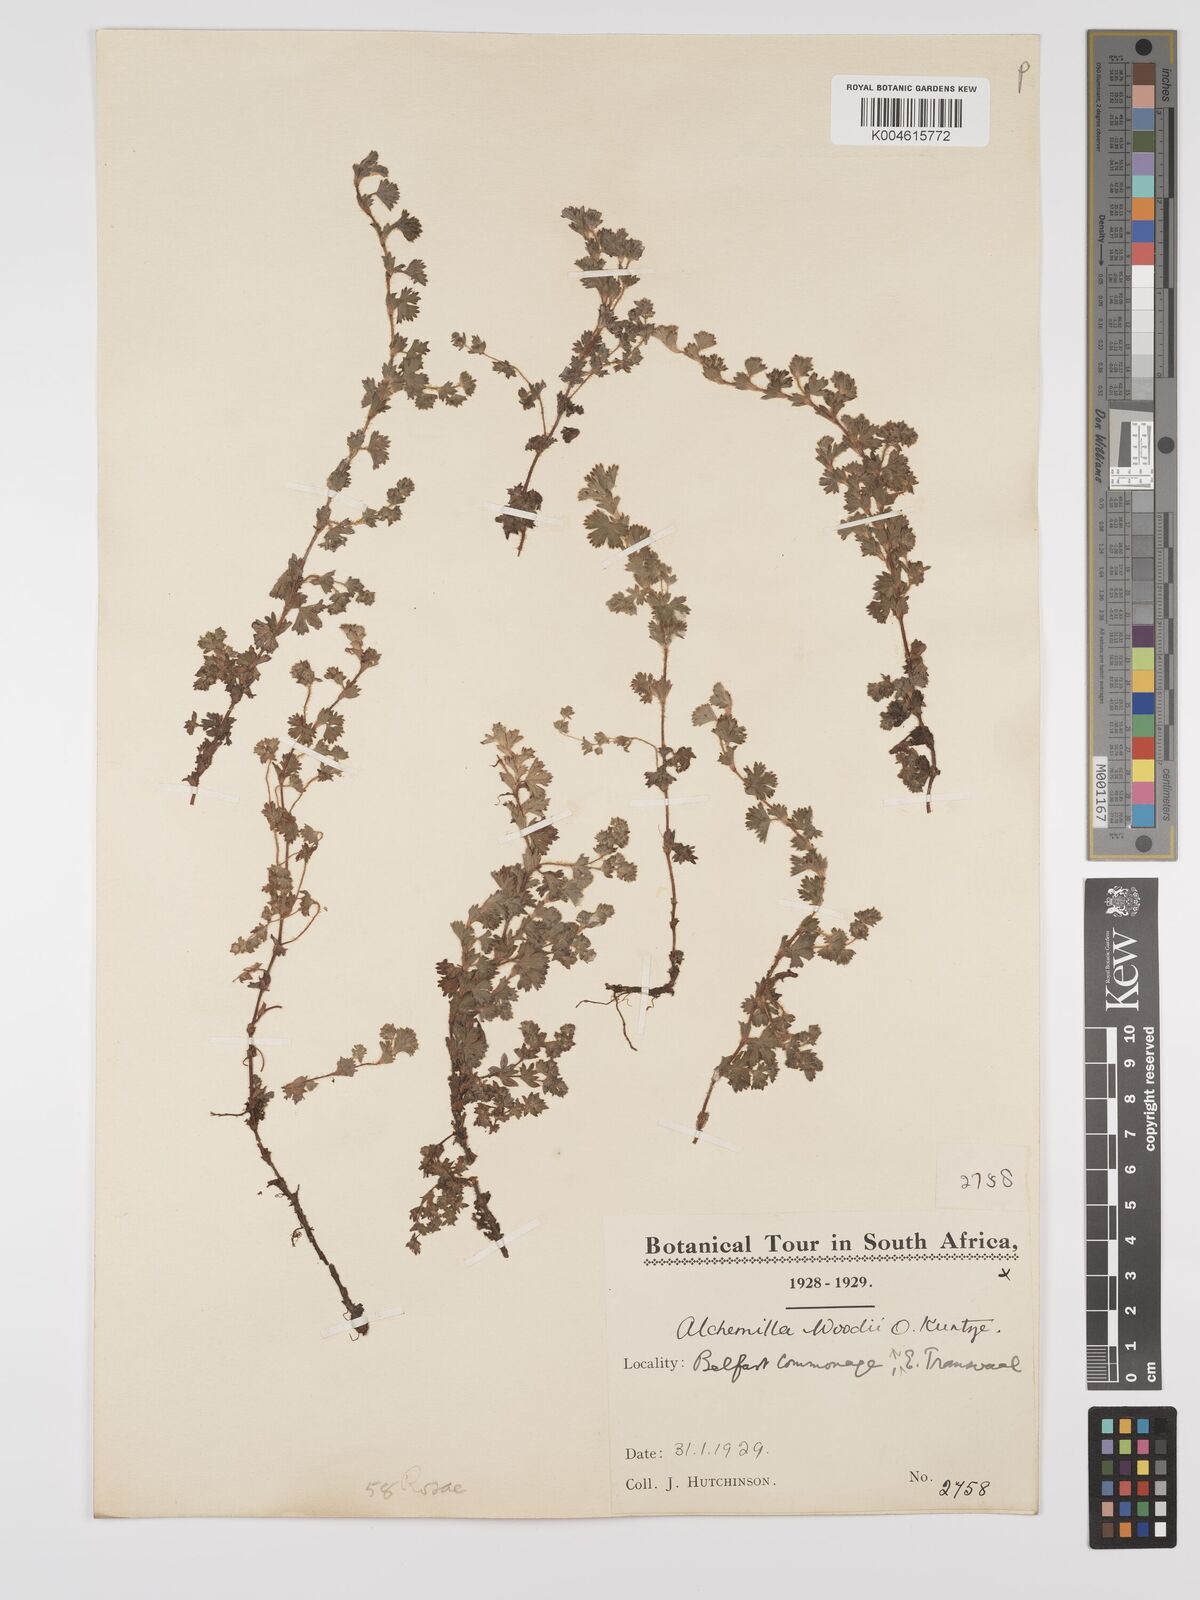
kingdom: Plantae
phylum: Tracheophyta
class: Magnoliopsida
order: Rosales
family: Rosaceae
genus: Alchemilla
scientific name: Alchemilla woodii
